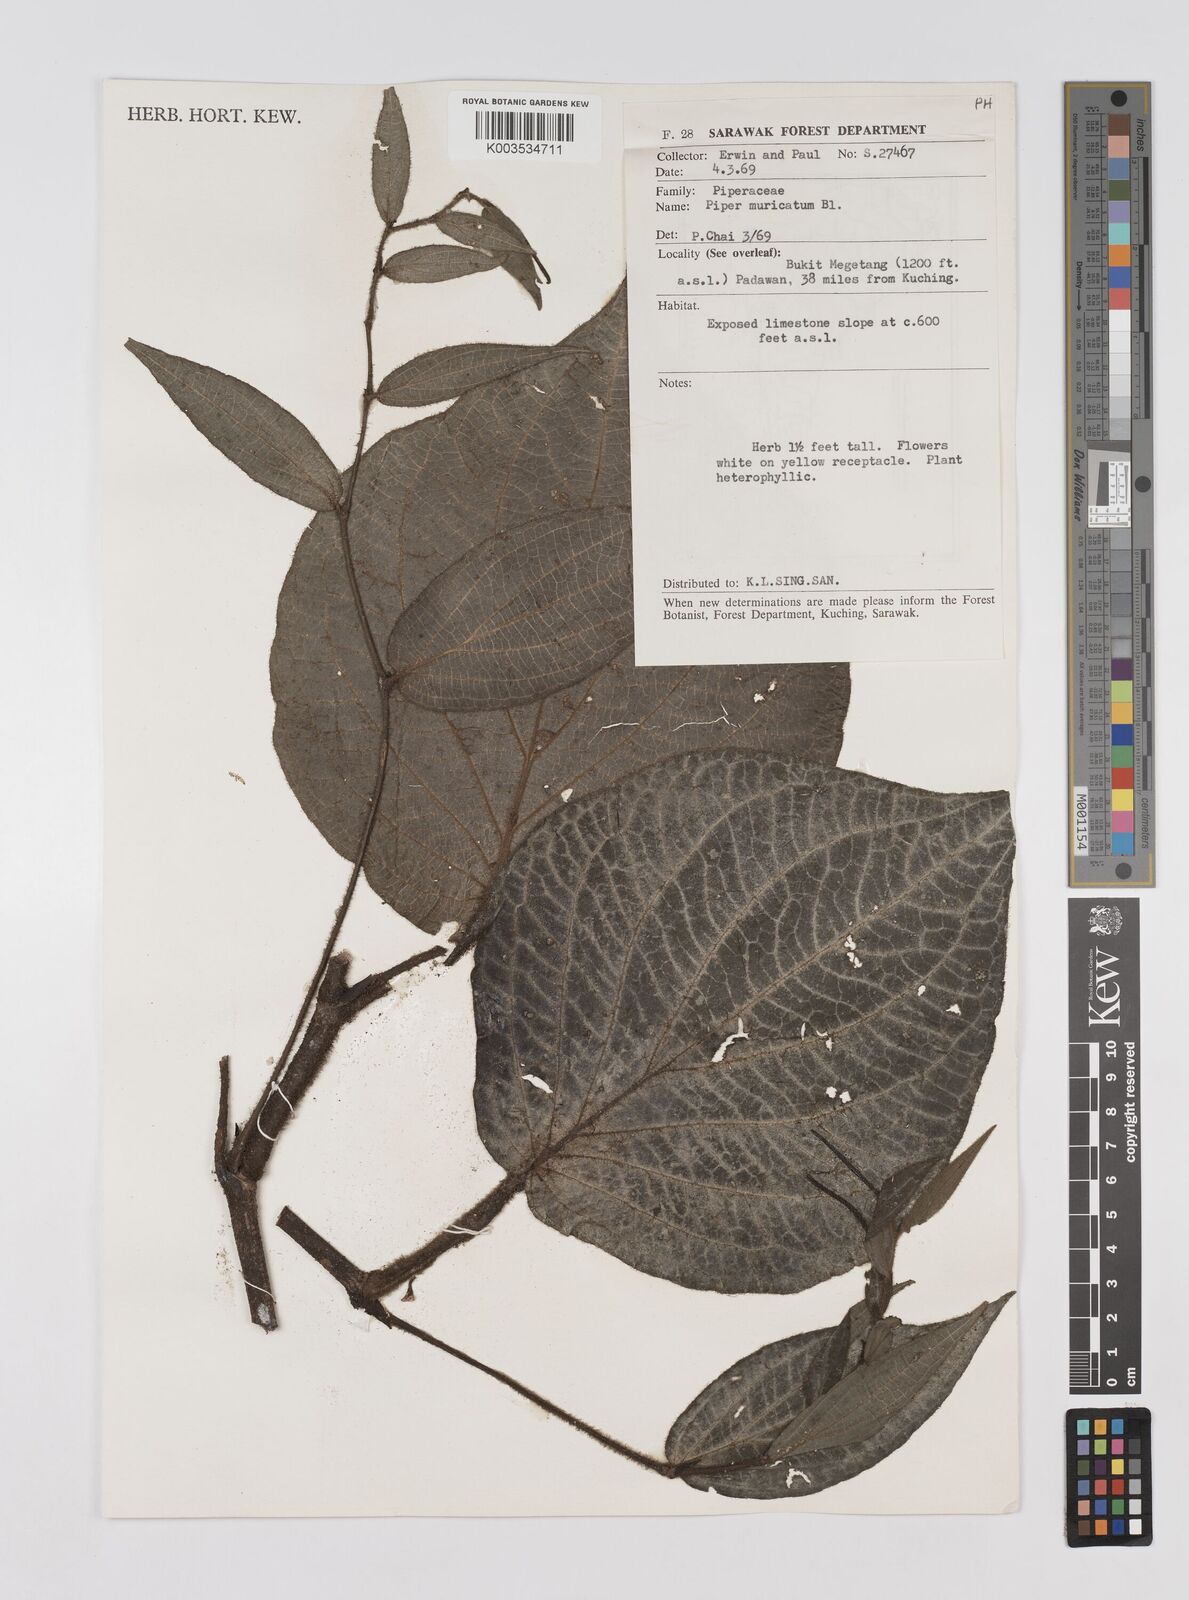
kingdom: Plantae
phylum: Tracheophyta
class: Magnoliopsida
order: Piperales
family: Piperaceae
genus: Piper
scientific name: Piper muricatum
